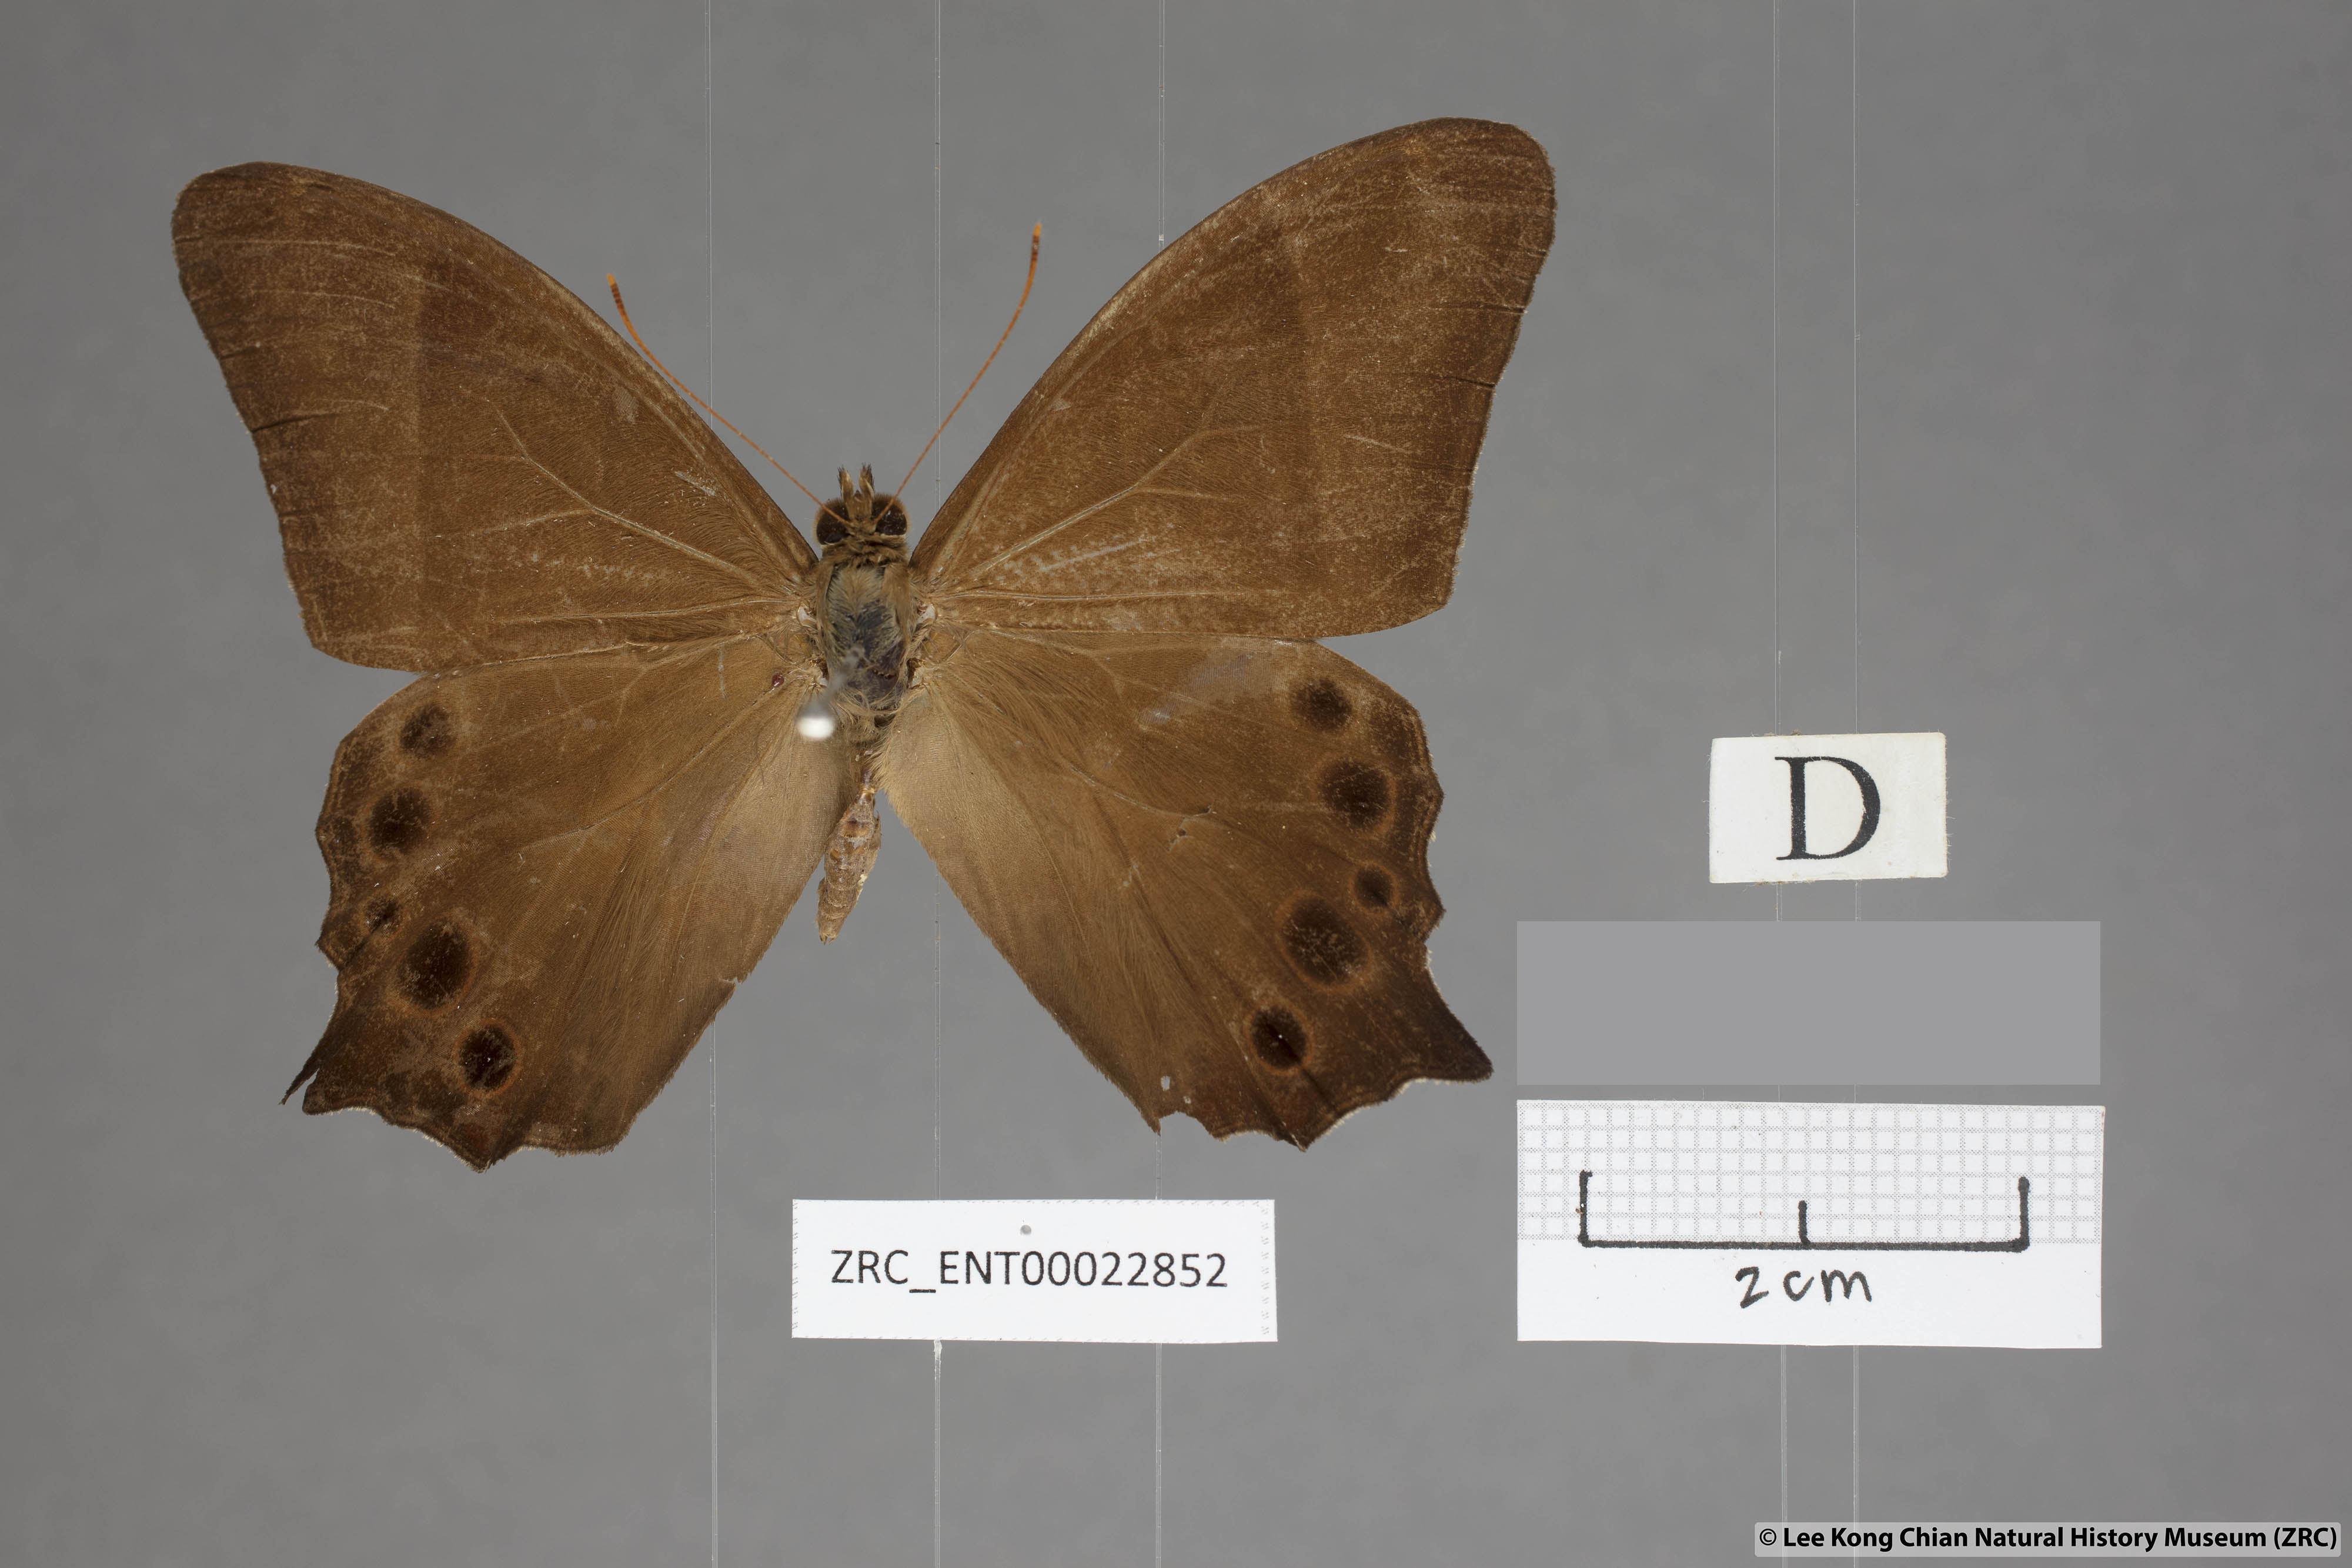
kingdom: Animalia
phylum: Arthropoda
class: Insecta
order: Lepidoptera
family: Nymphalidae
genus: Lethe
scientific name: Lethe vindhya
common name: Black forester
